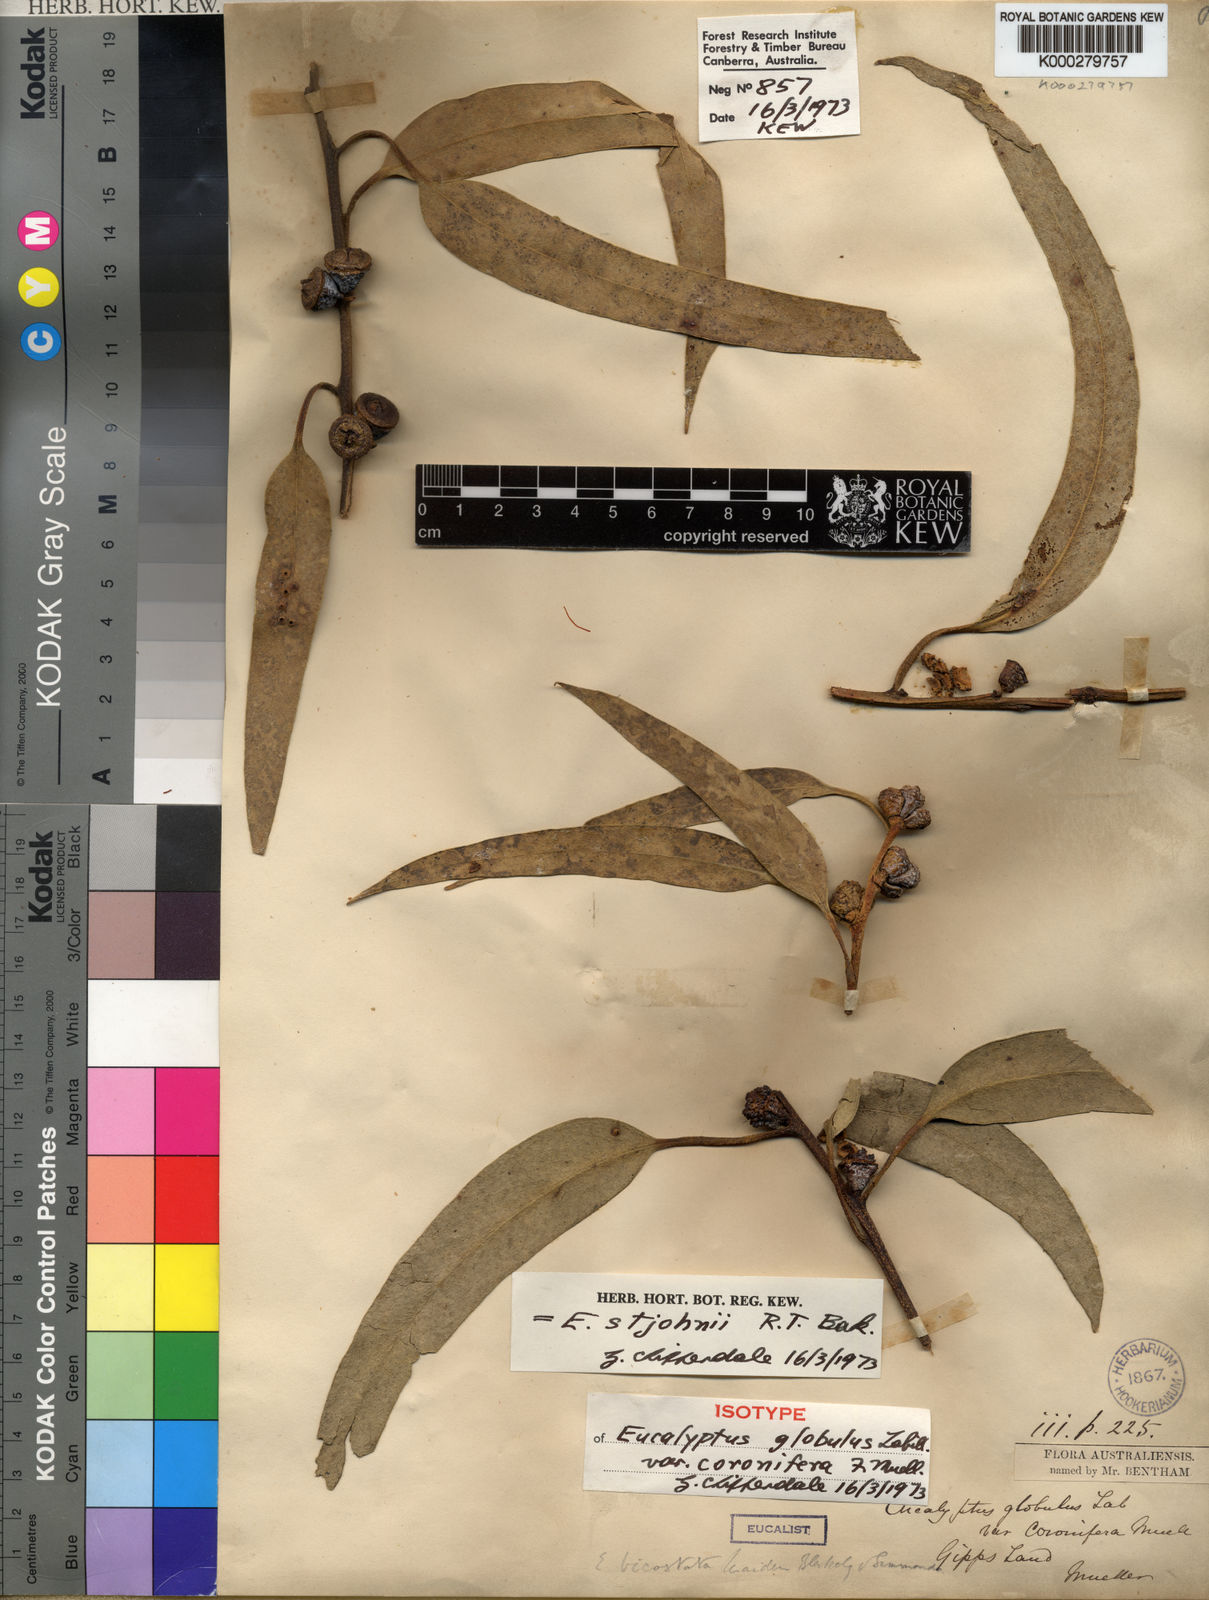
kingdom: Plantae
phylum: Tracheophyta
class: Magnoliopsida
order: Myrtales
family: Myrtaceae
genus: Eucalyptus
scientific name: Eucalyptus globulus
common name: Southern blue-gum
